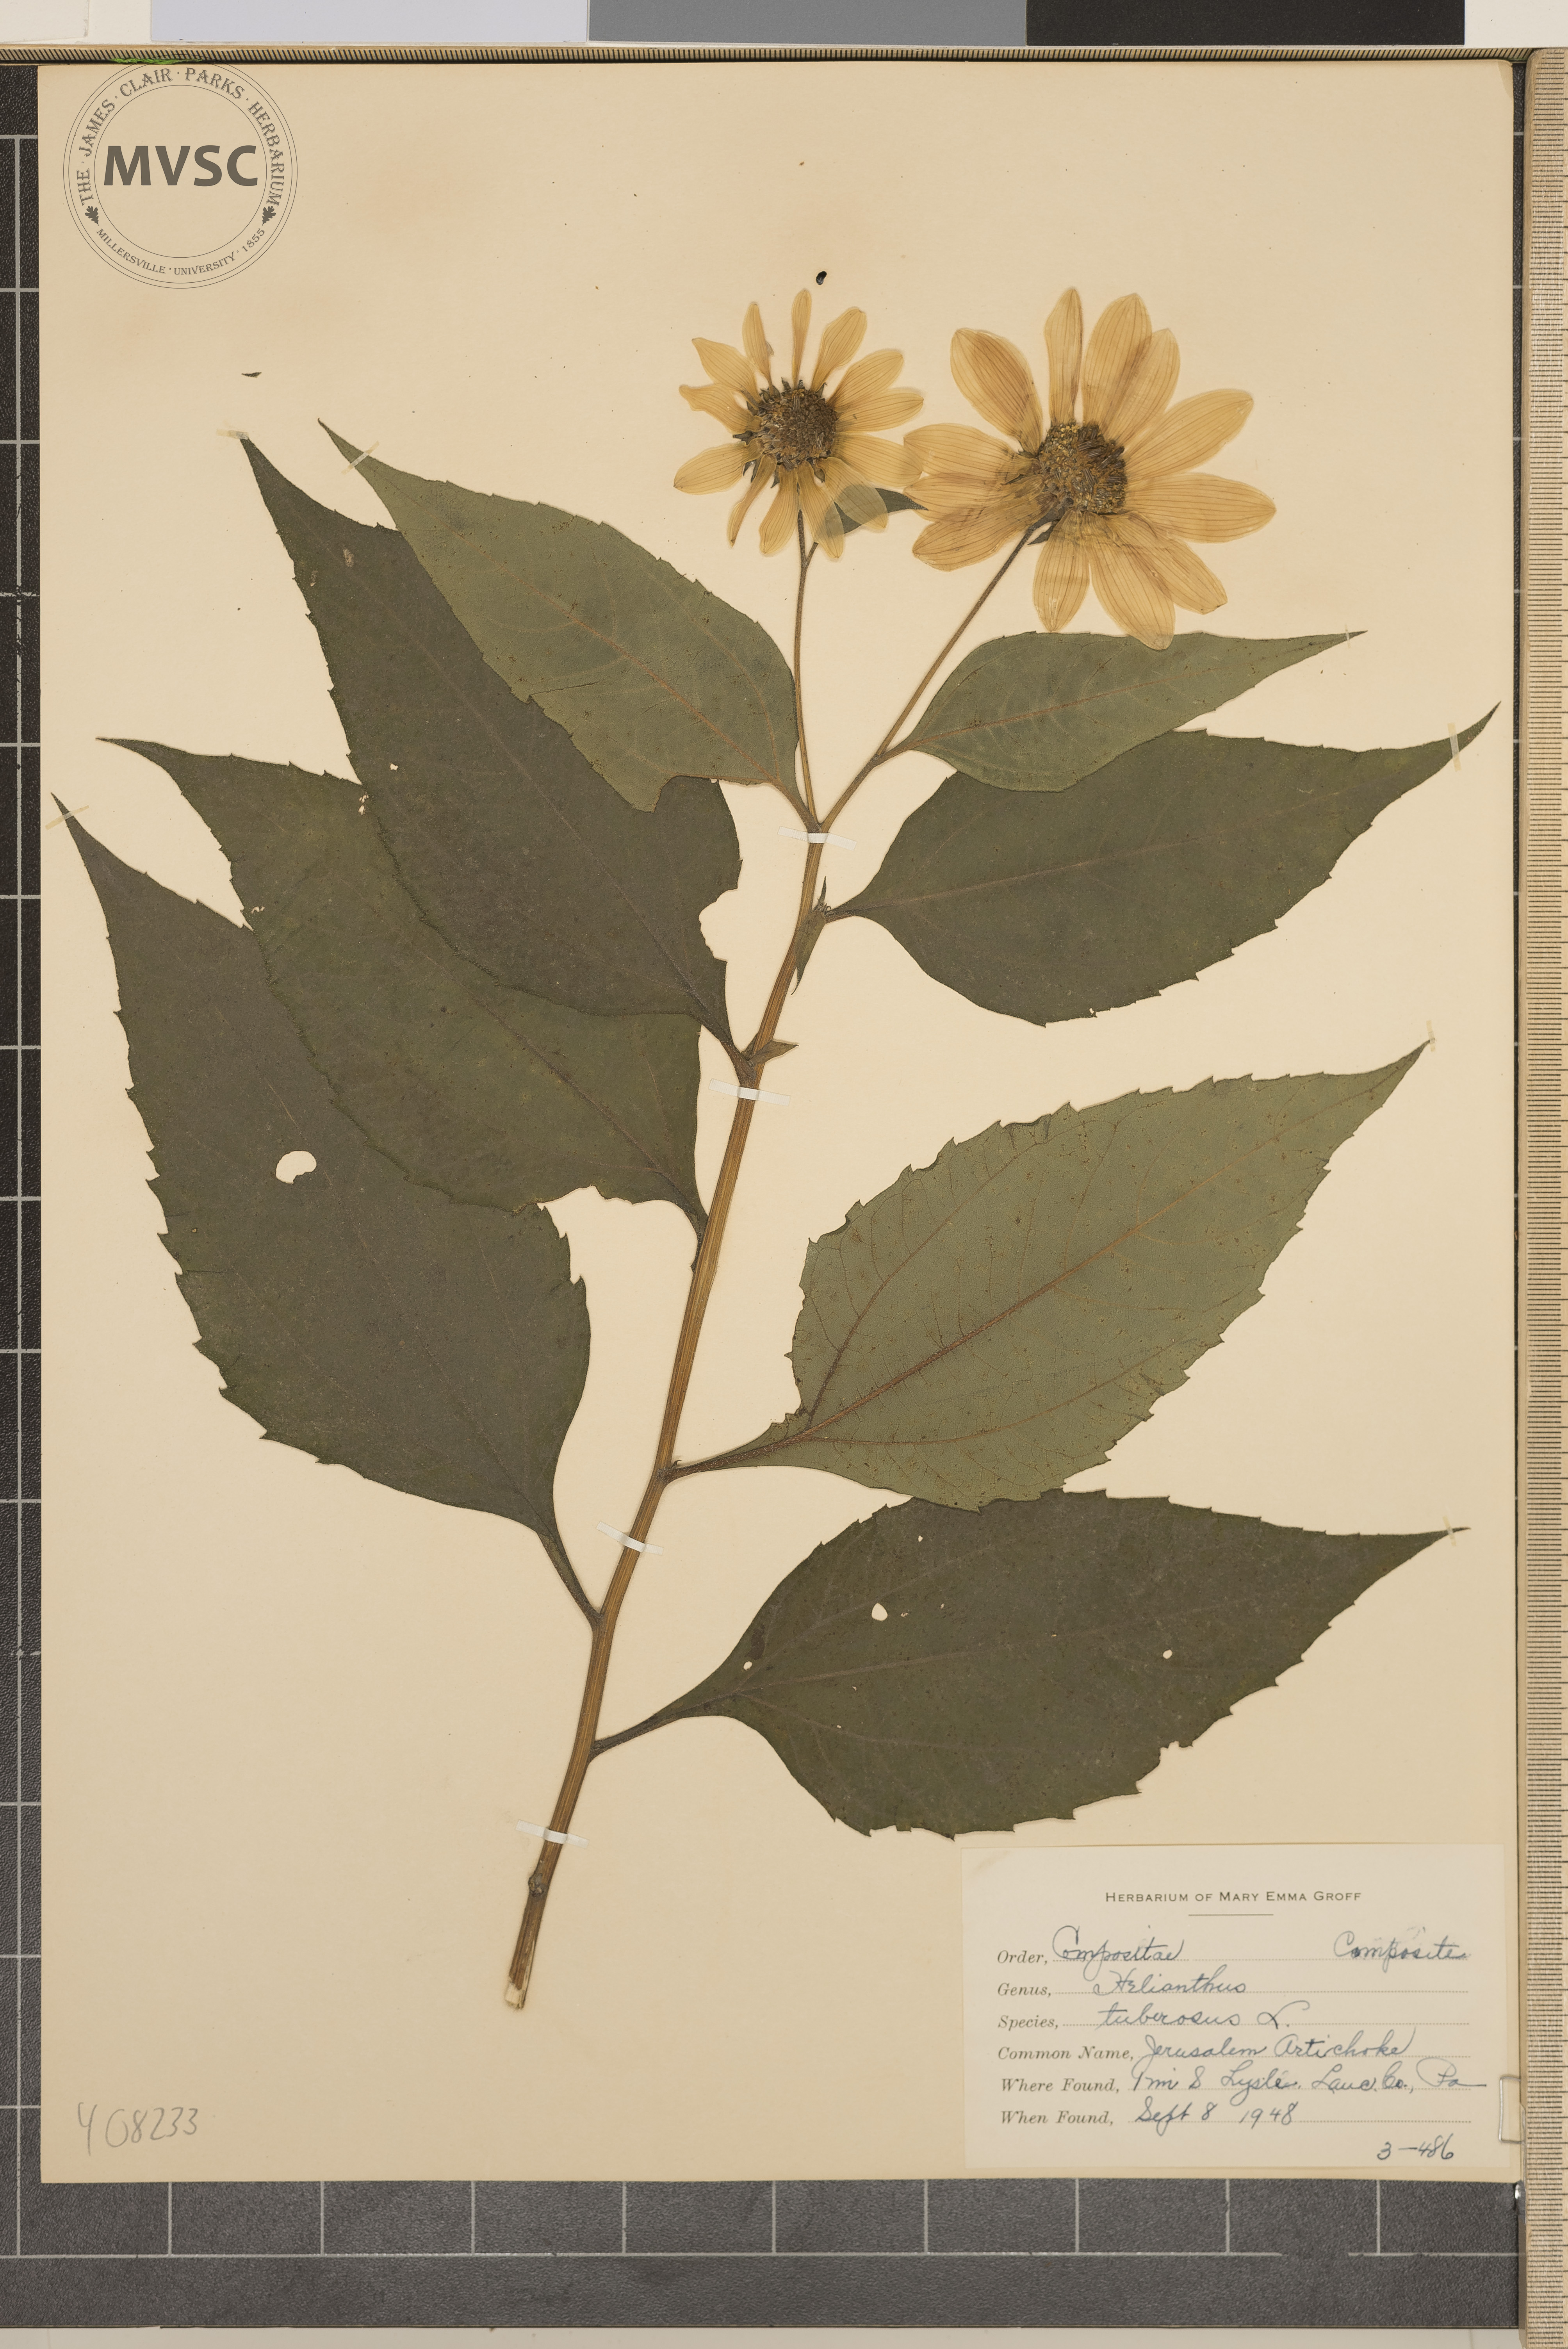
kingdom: Plantae
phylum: Tracheophyta
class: Magnoliopsida
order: Asterales
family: Asteraceae
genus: Helianthus
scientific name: Helianthus tuberosus
